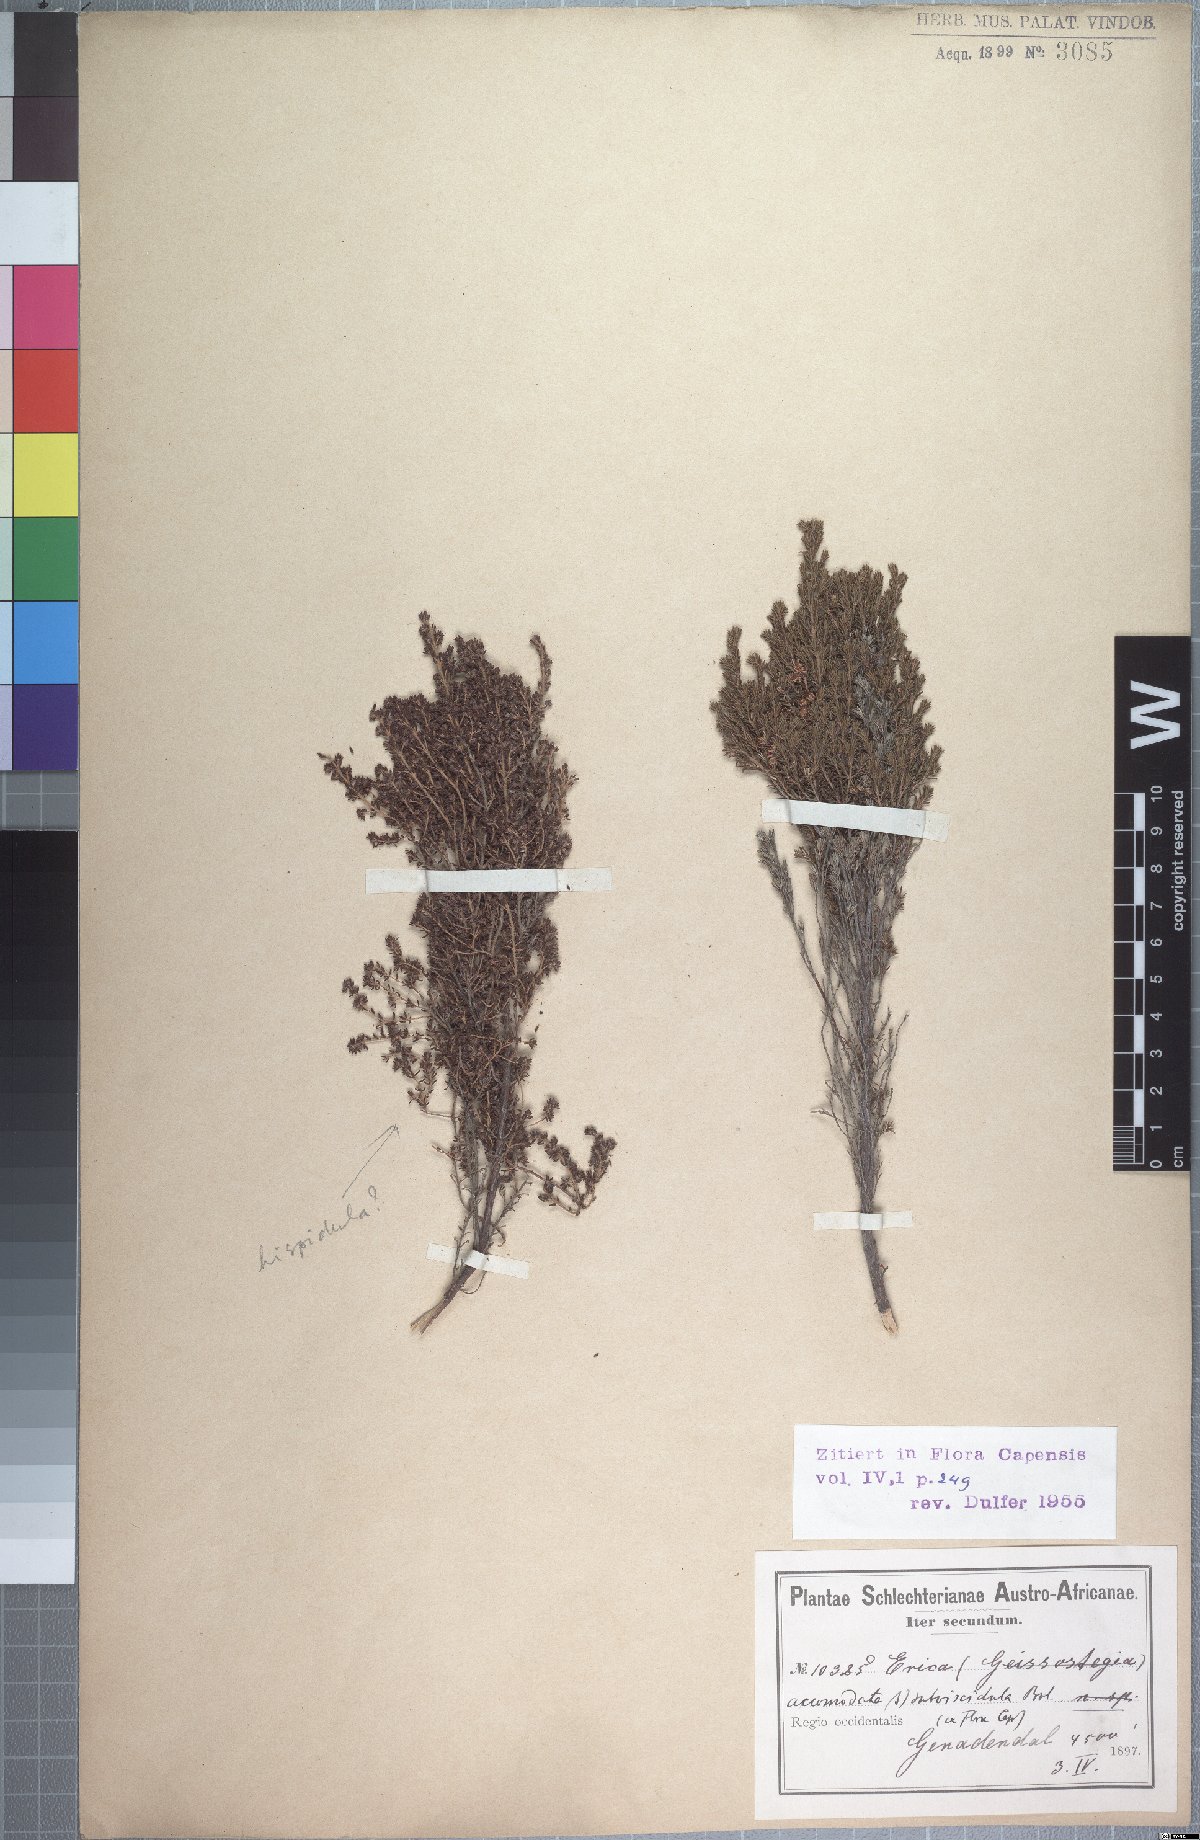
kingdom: Plantae
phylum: Tracheophyta
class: Magnoliopsida
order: Ericales
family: Ericaceae
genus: Erica
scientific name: Erica accommodata
